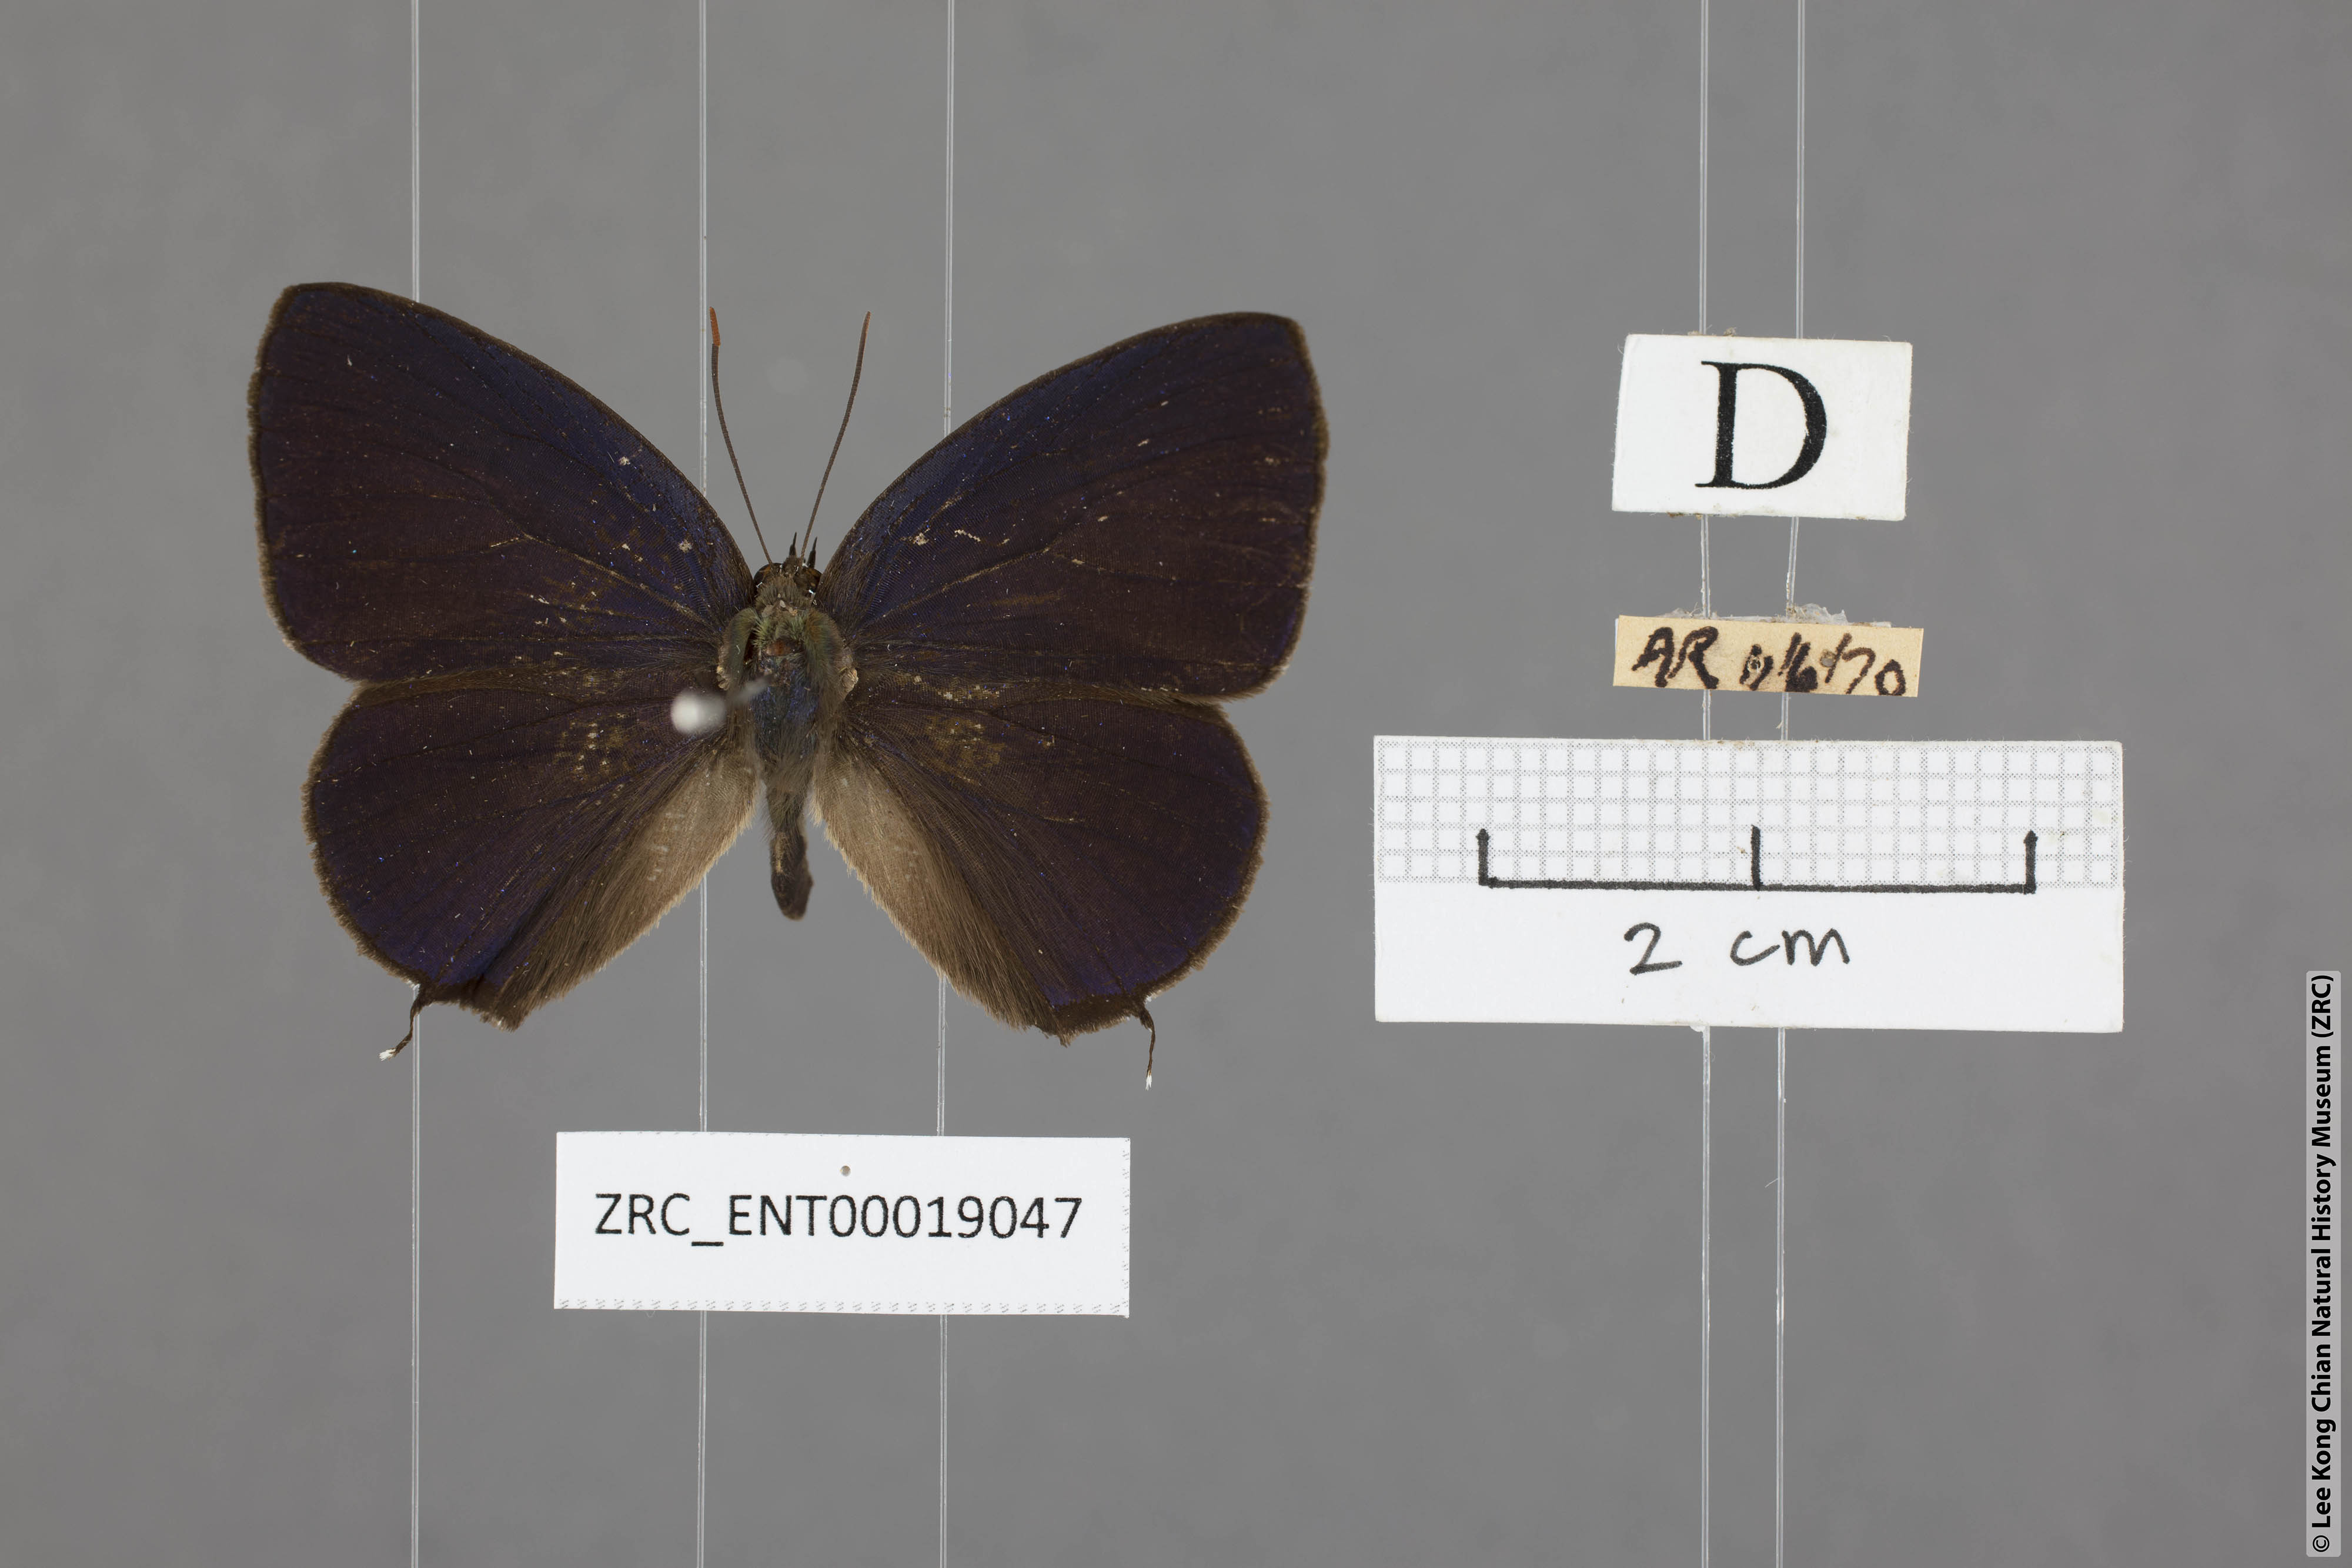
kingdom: Animalia
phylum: Arthropoda
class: Insecta
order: Lepidoptera
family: Lycaenidae
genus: Arhopala
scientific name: Arhopala agrata
